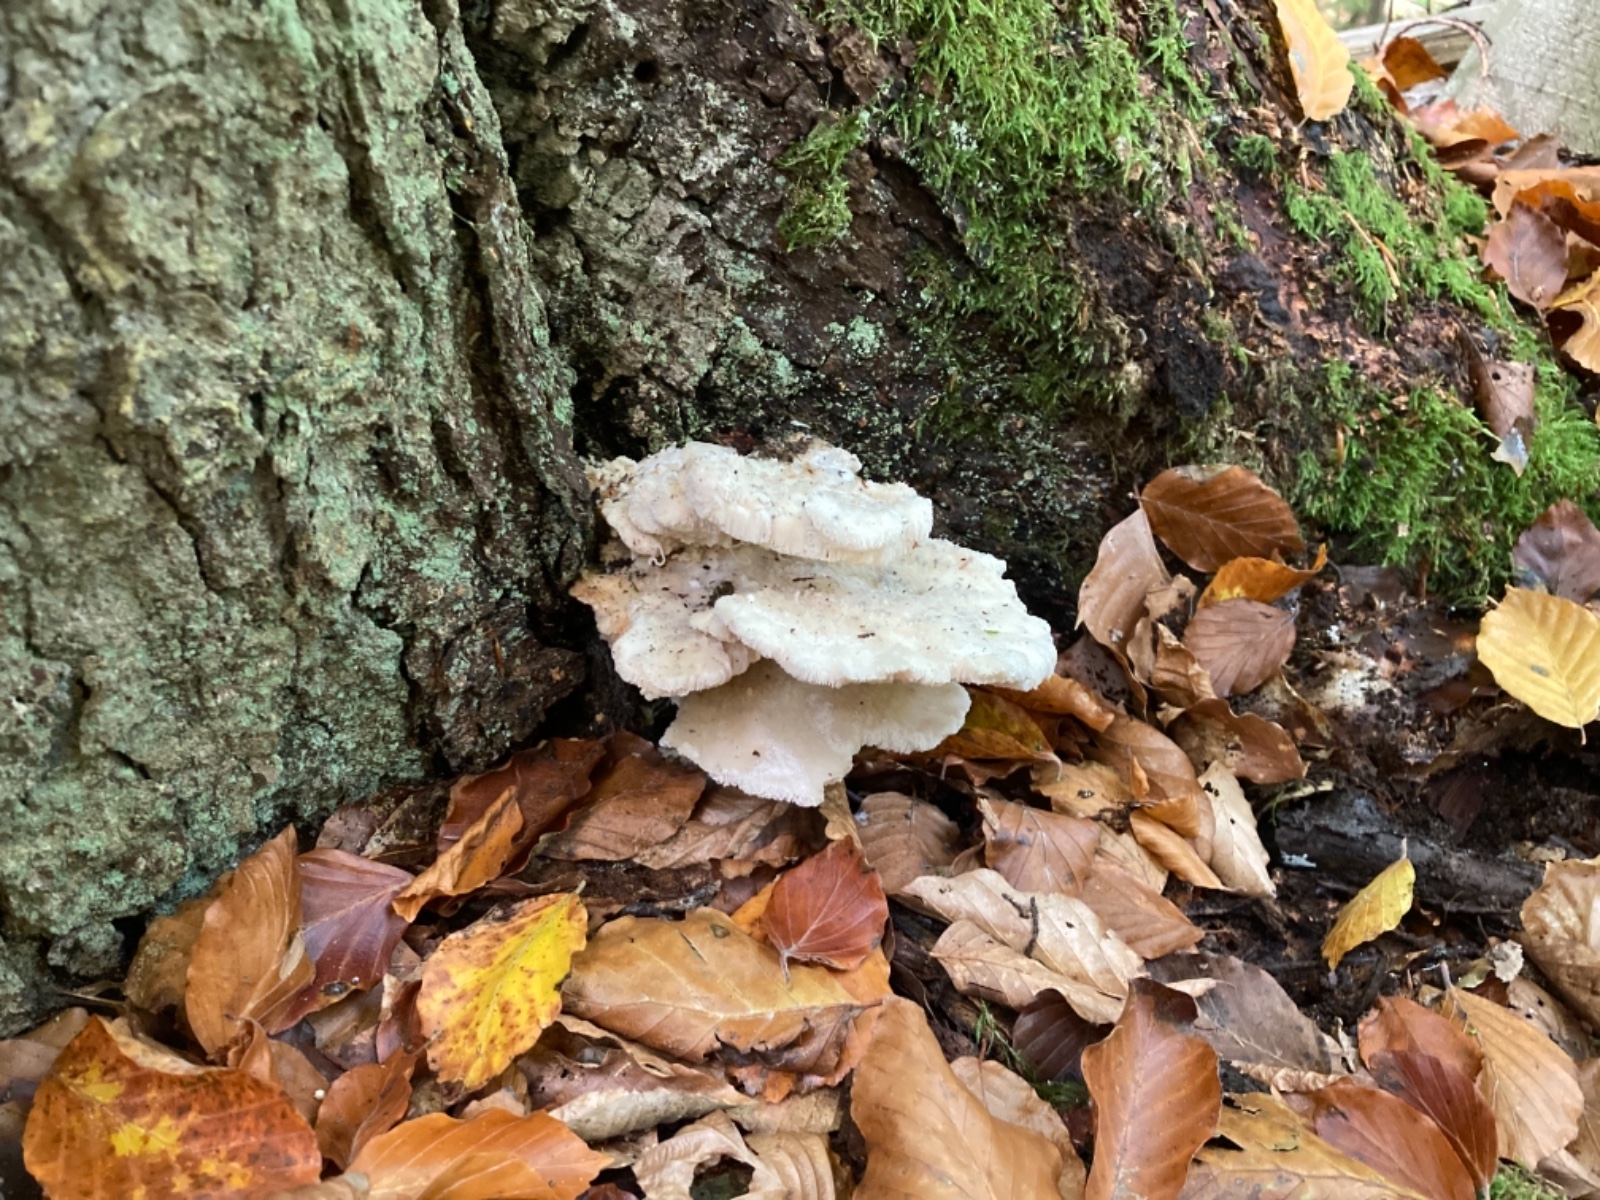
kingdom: Fungi
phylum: Basidiomycota
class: Agaricomycetes
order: Polyporales
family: Fomitopsidaceae
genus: Climacocystis
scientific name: Climacocystis borealis
